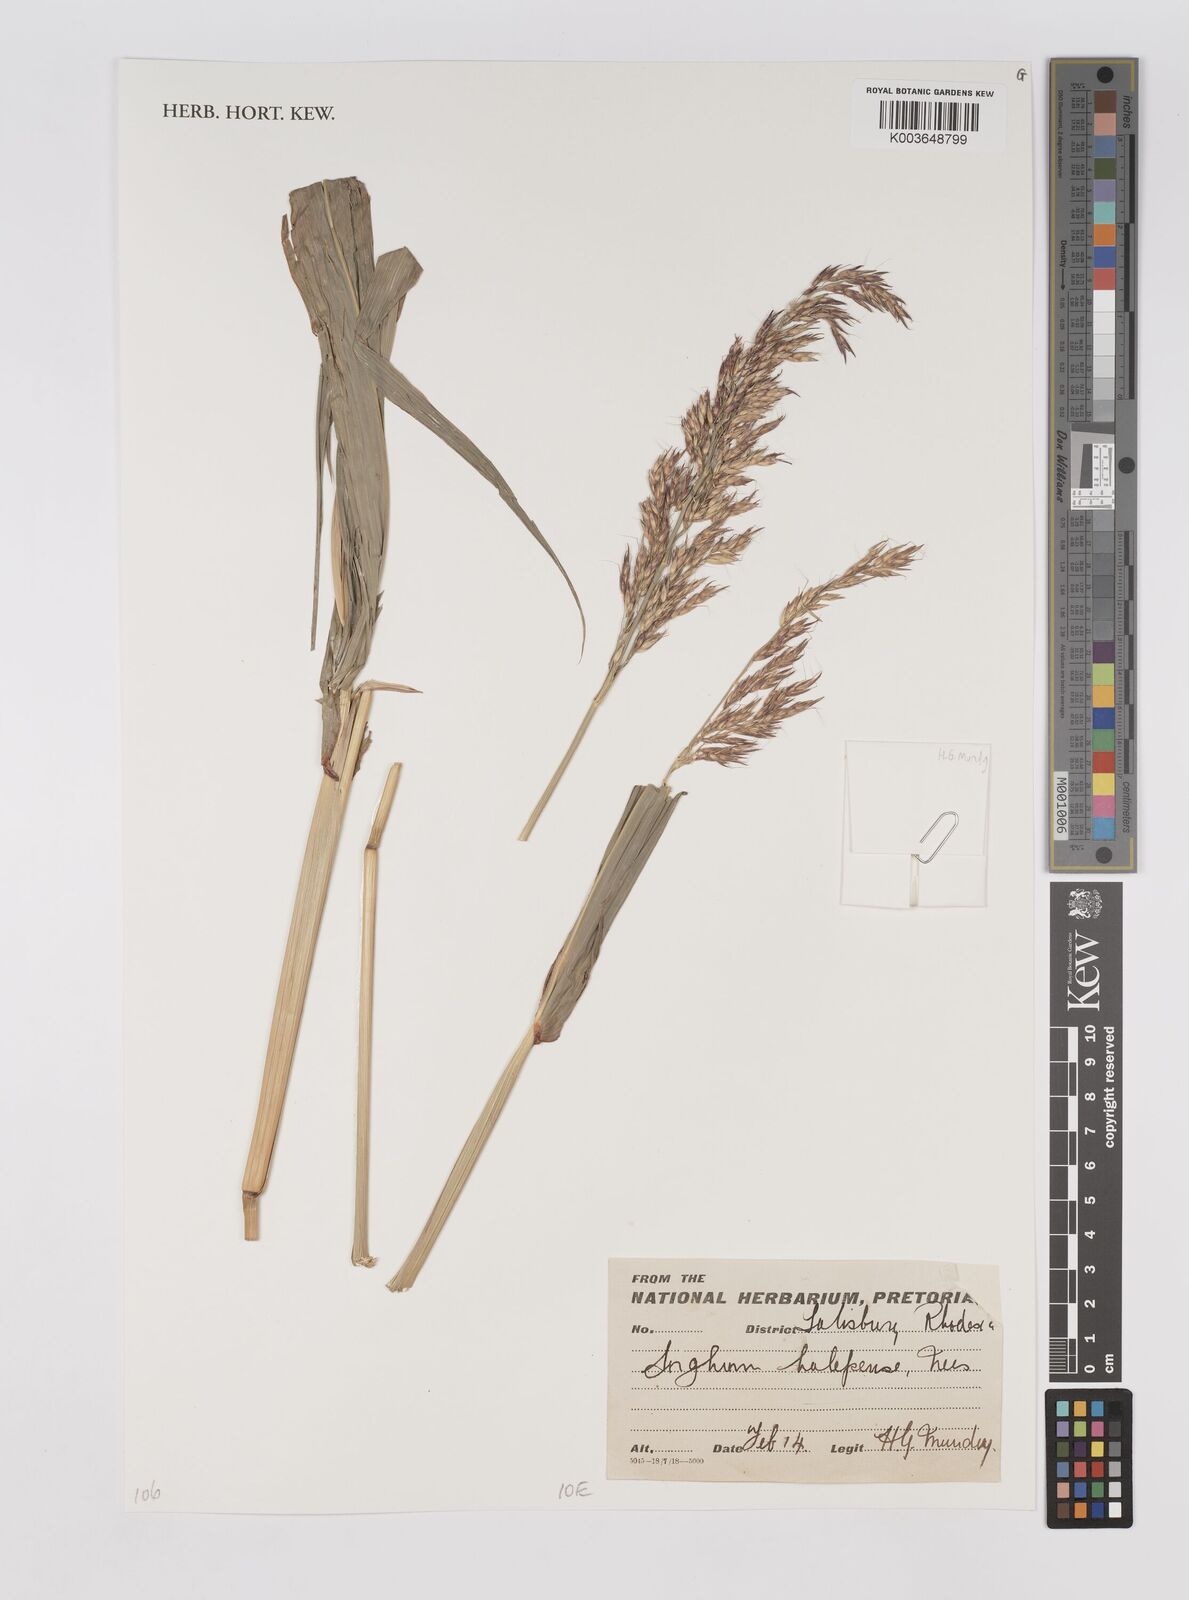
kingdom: Plantae
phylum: Tracheophyta
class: Liliopsida
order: Poales
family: Poaceae
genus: Sorghum
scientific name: Sorghum halepense
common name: Johnson-grass
